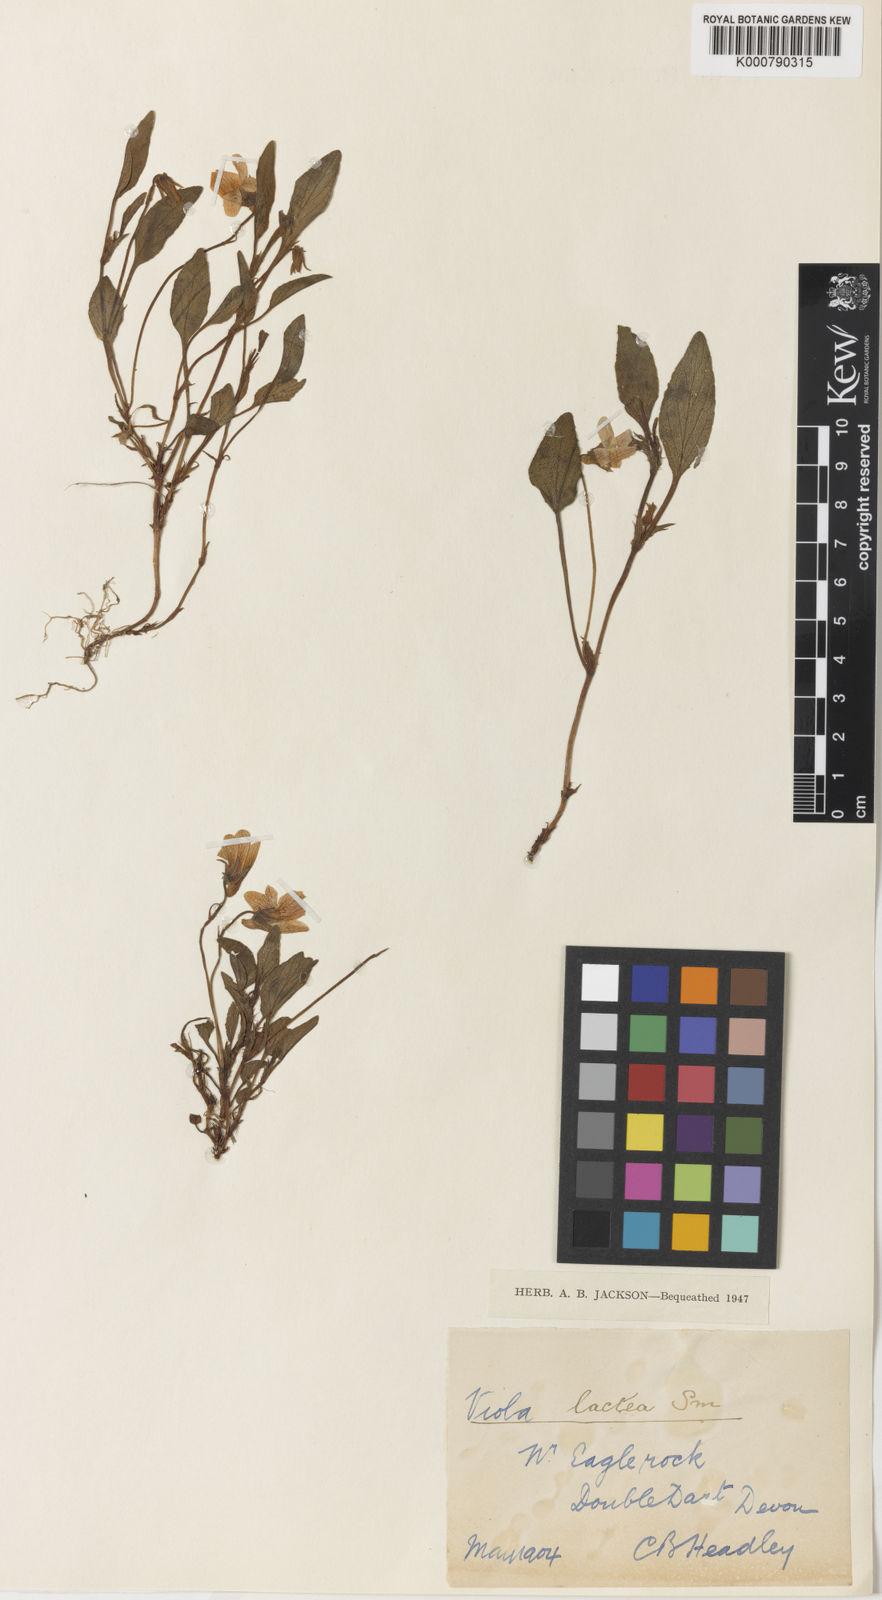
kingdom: Plantae
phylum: Tracheophyta
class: Magnoliopsida
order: Malpighiales
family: Violaceae
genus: Viola
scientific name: Viola lactea
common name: Pale dog-violet
